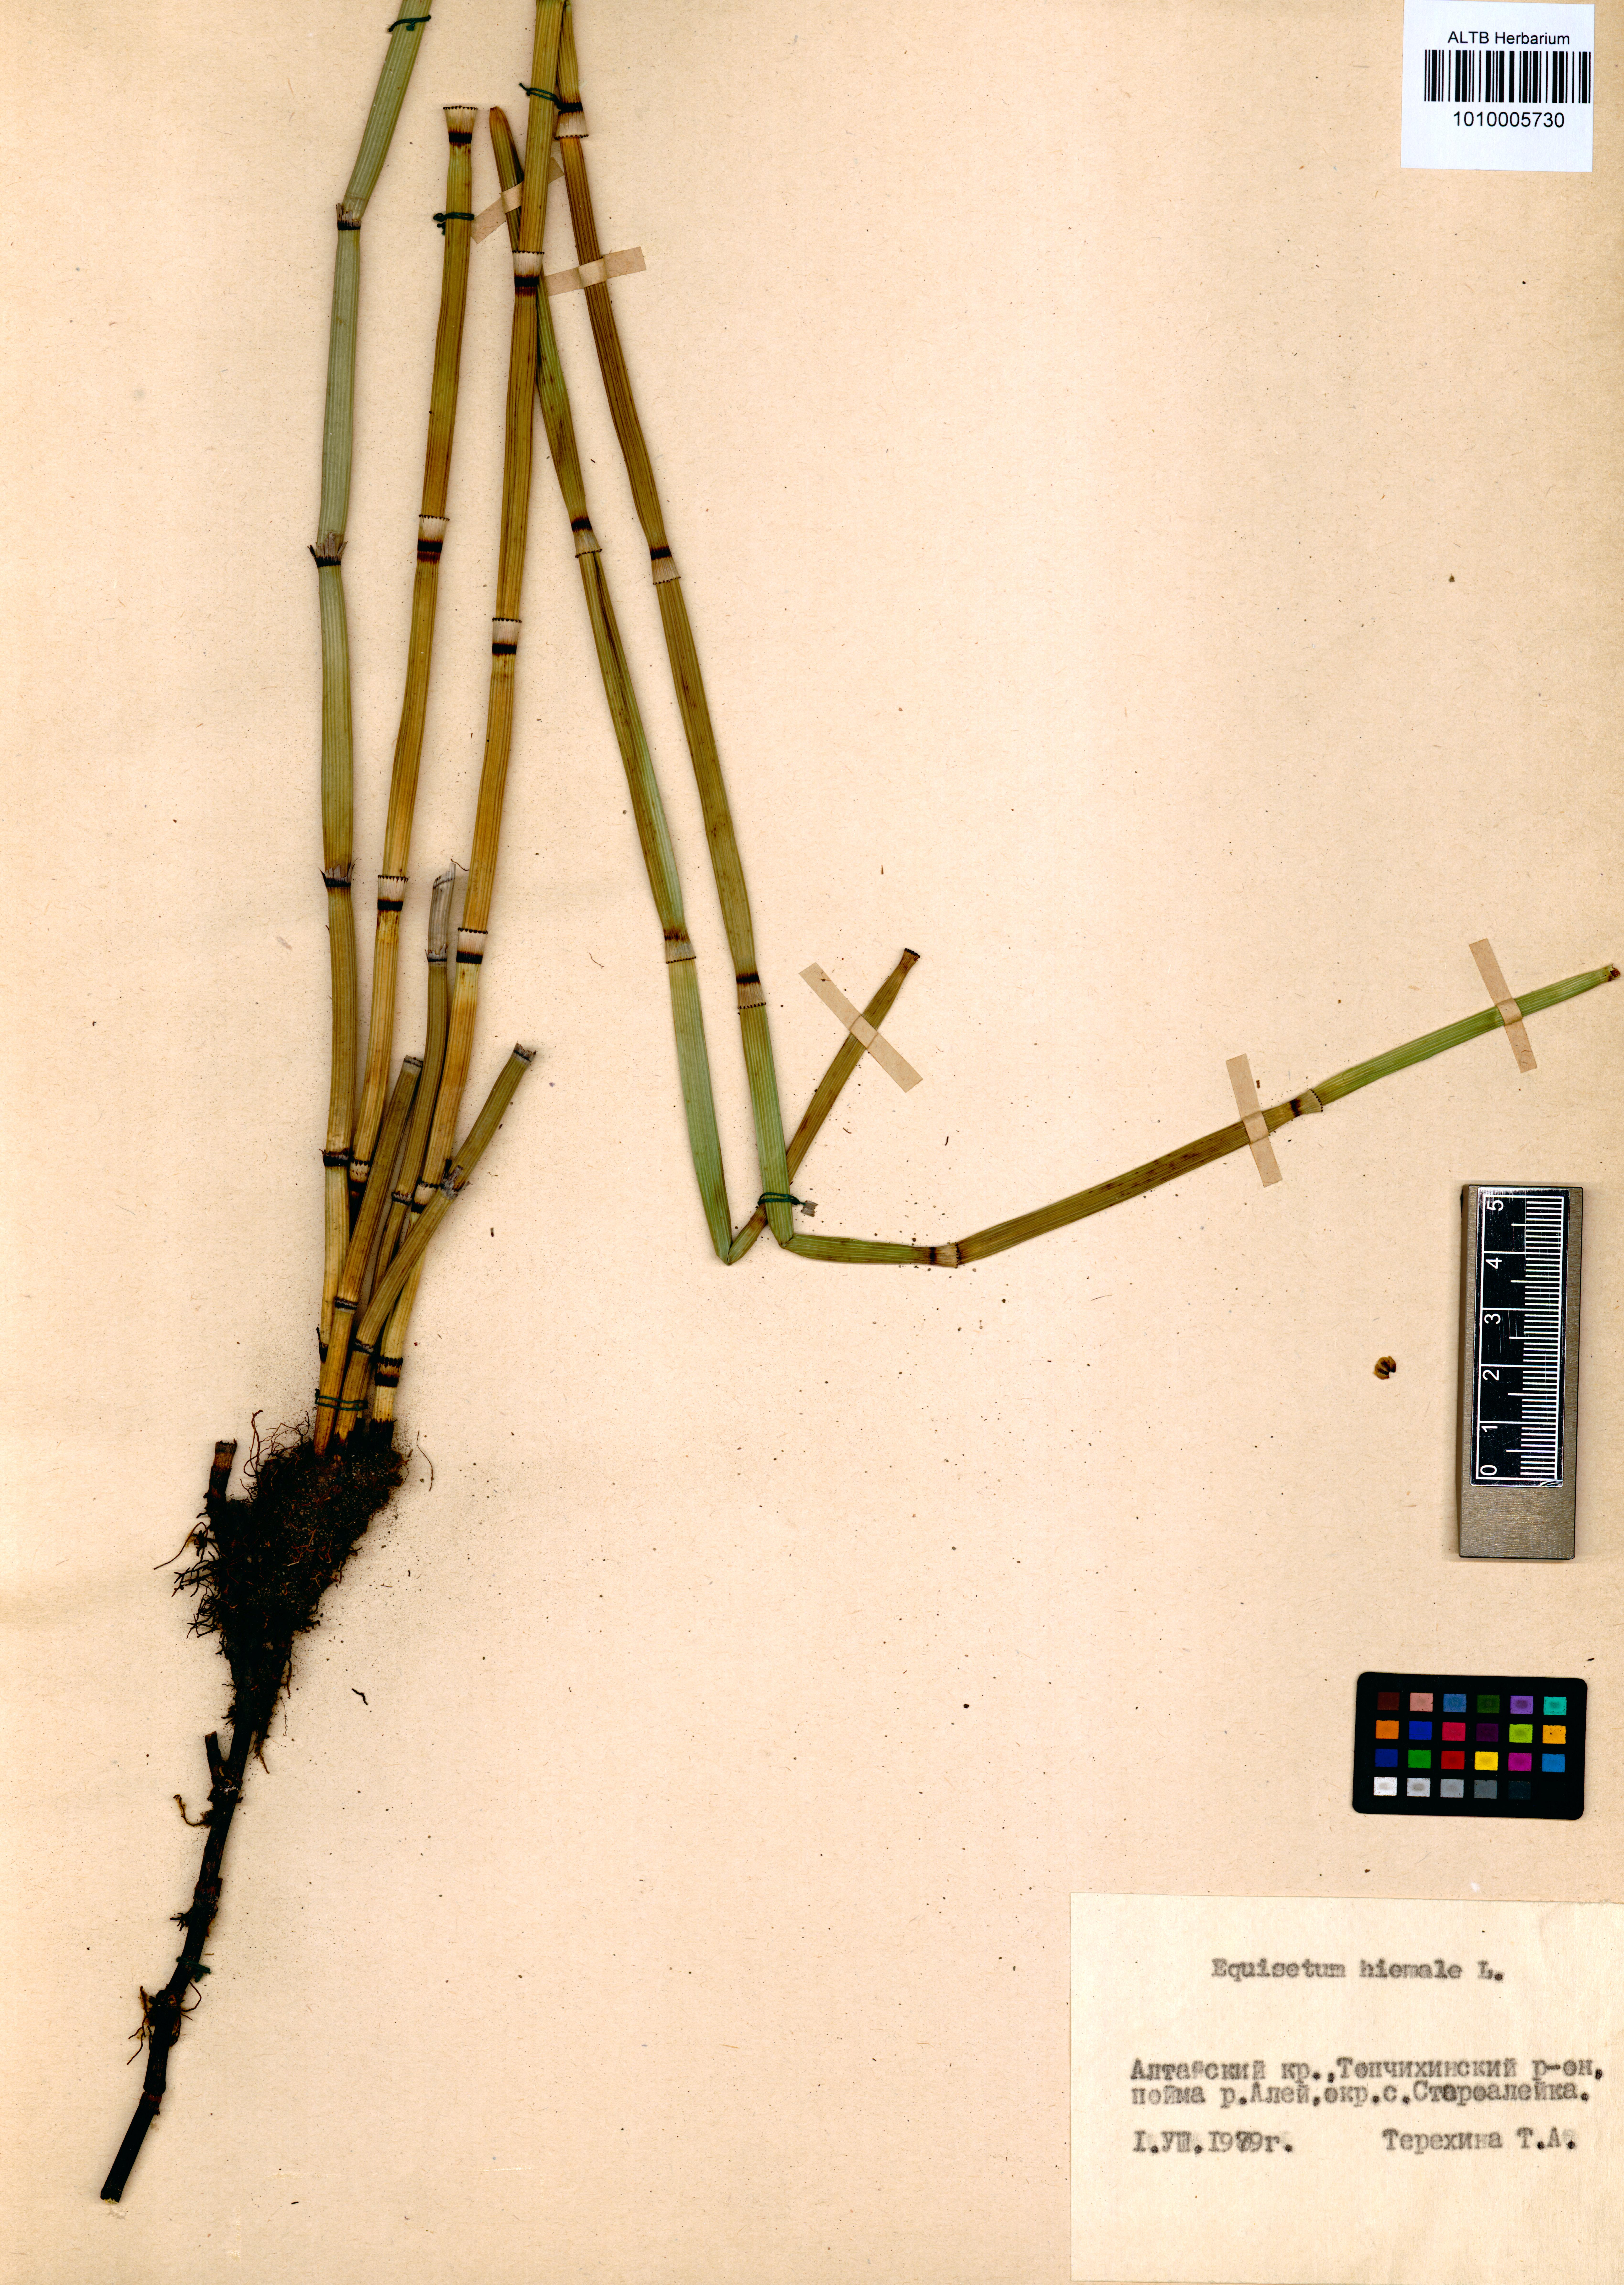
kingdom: Plantae
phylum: Tracheophyta
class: Polypodiopsida
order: Equisetales
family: Equisetaceae
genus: Equisetum
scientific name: Equisetum hyemale
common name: Rough horsetail
